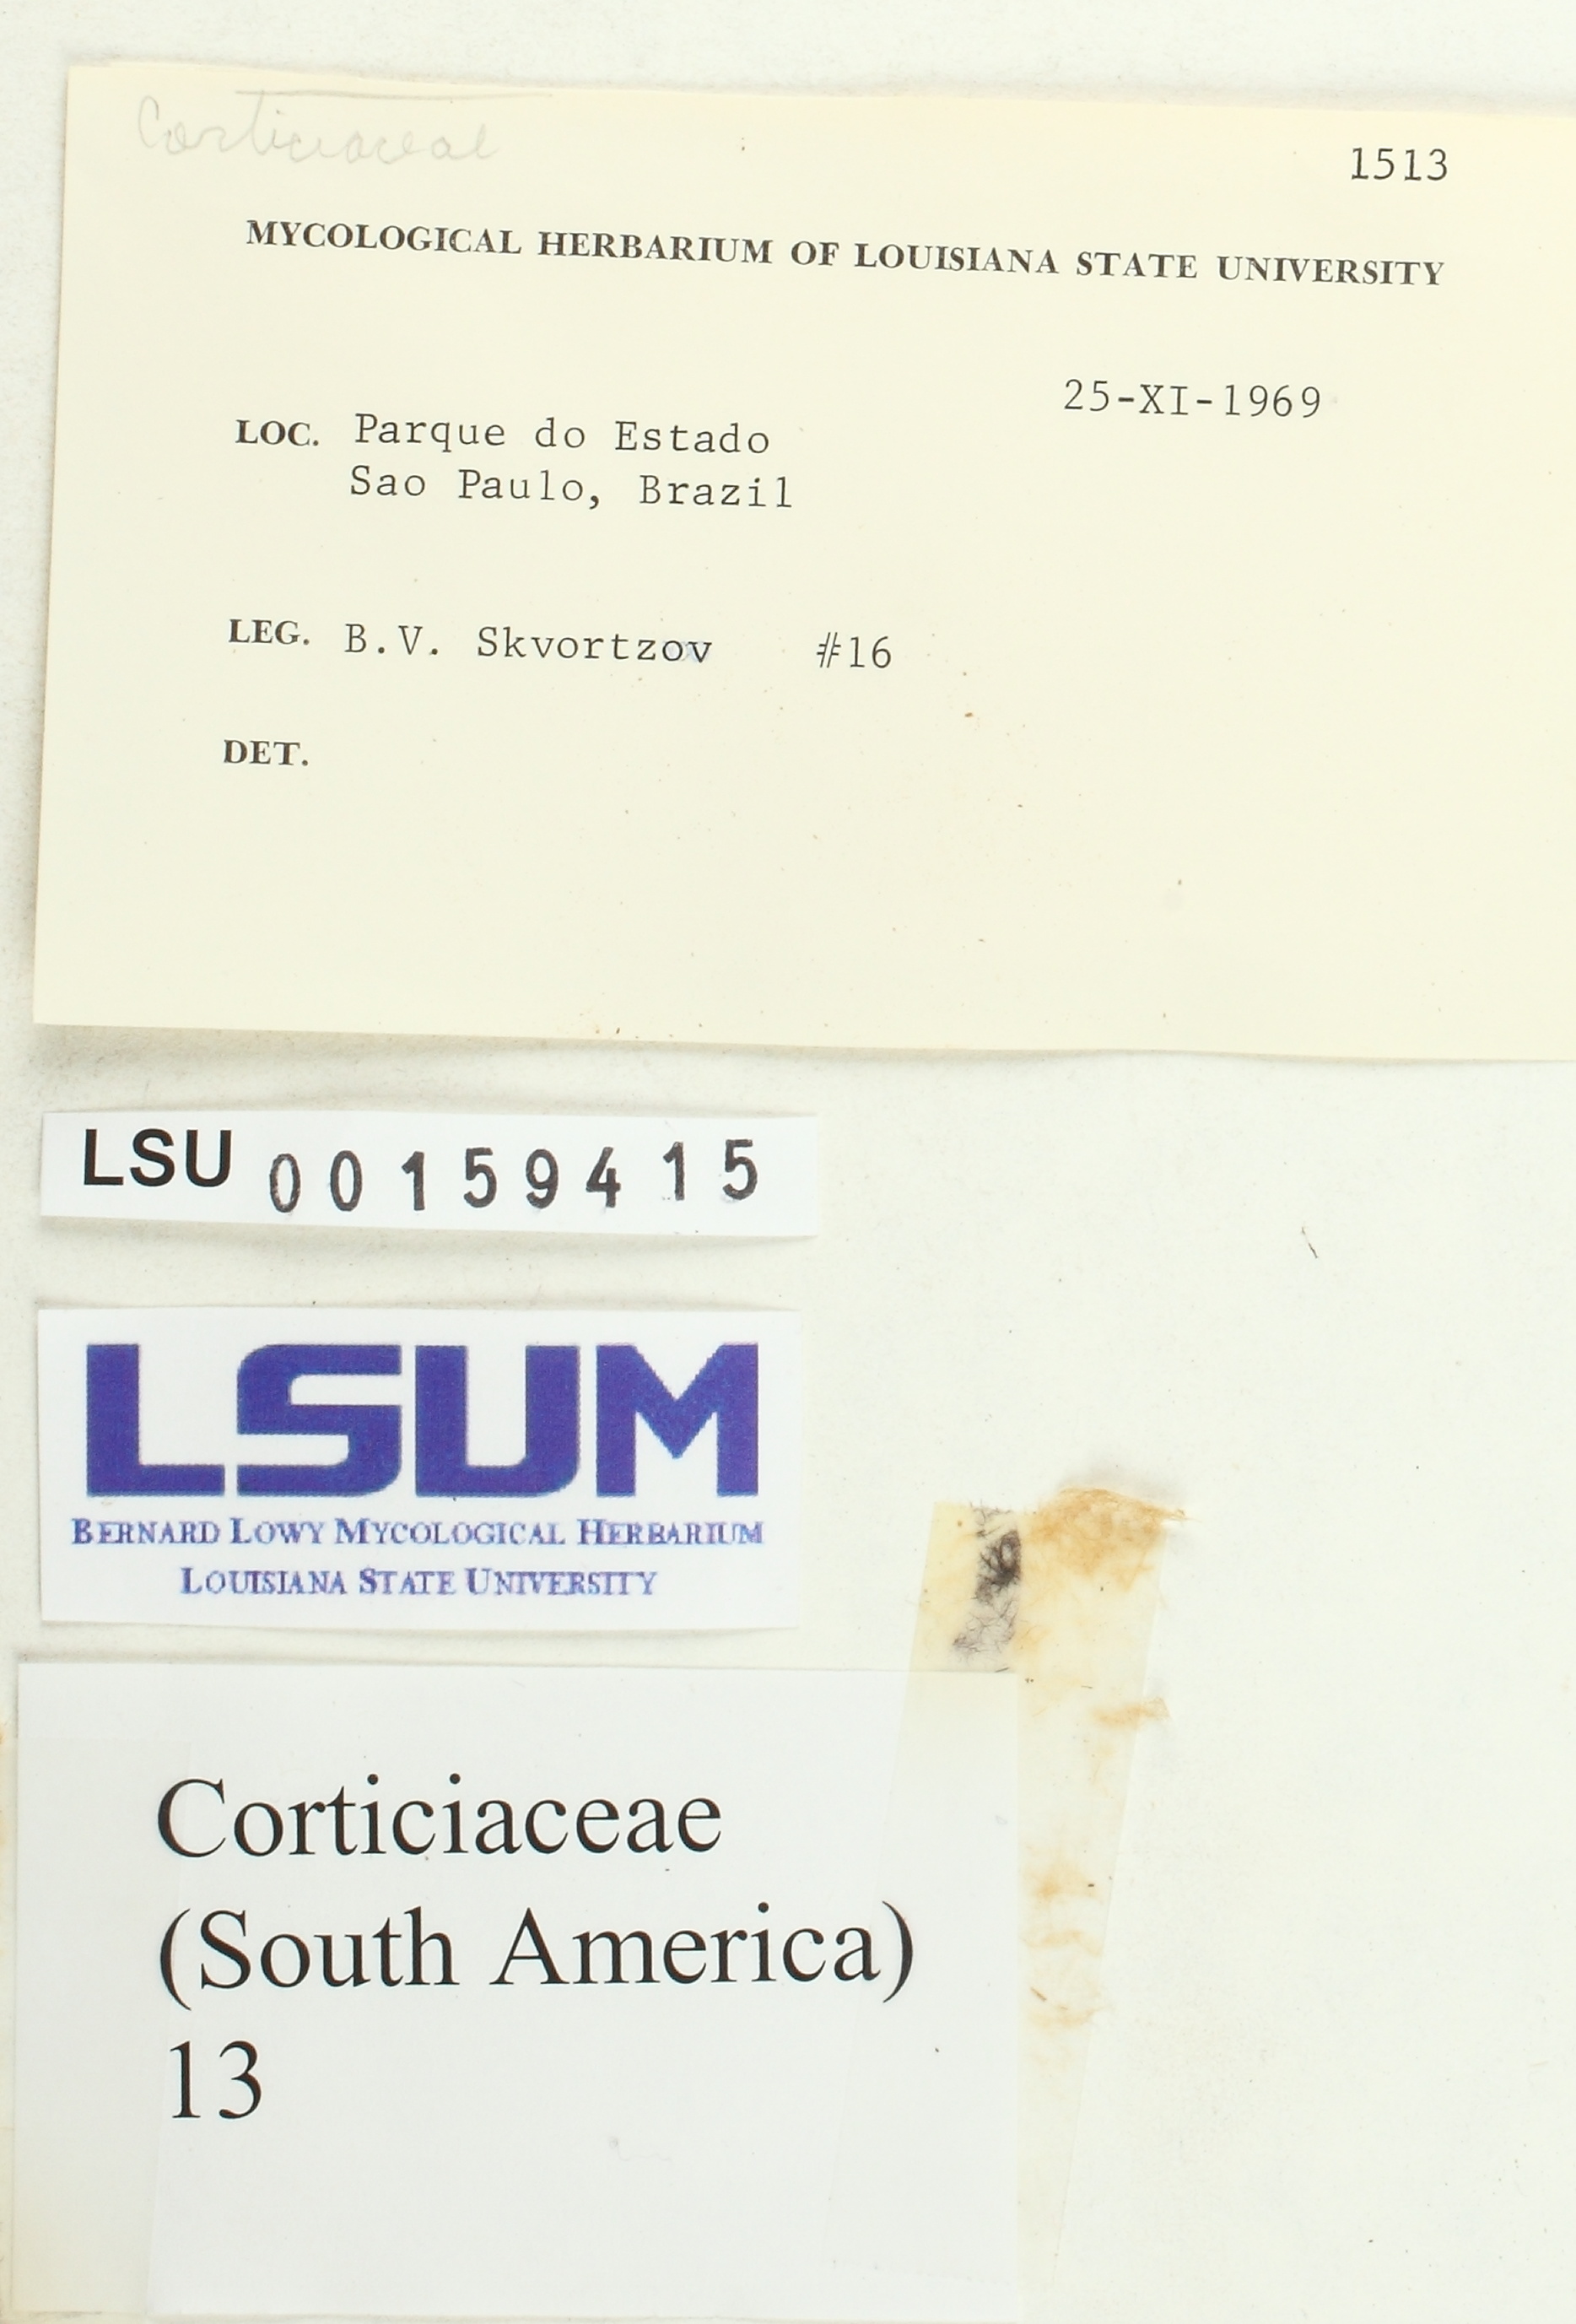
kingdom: Fungi
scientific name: Fungi
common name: Fungi
